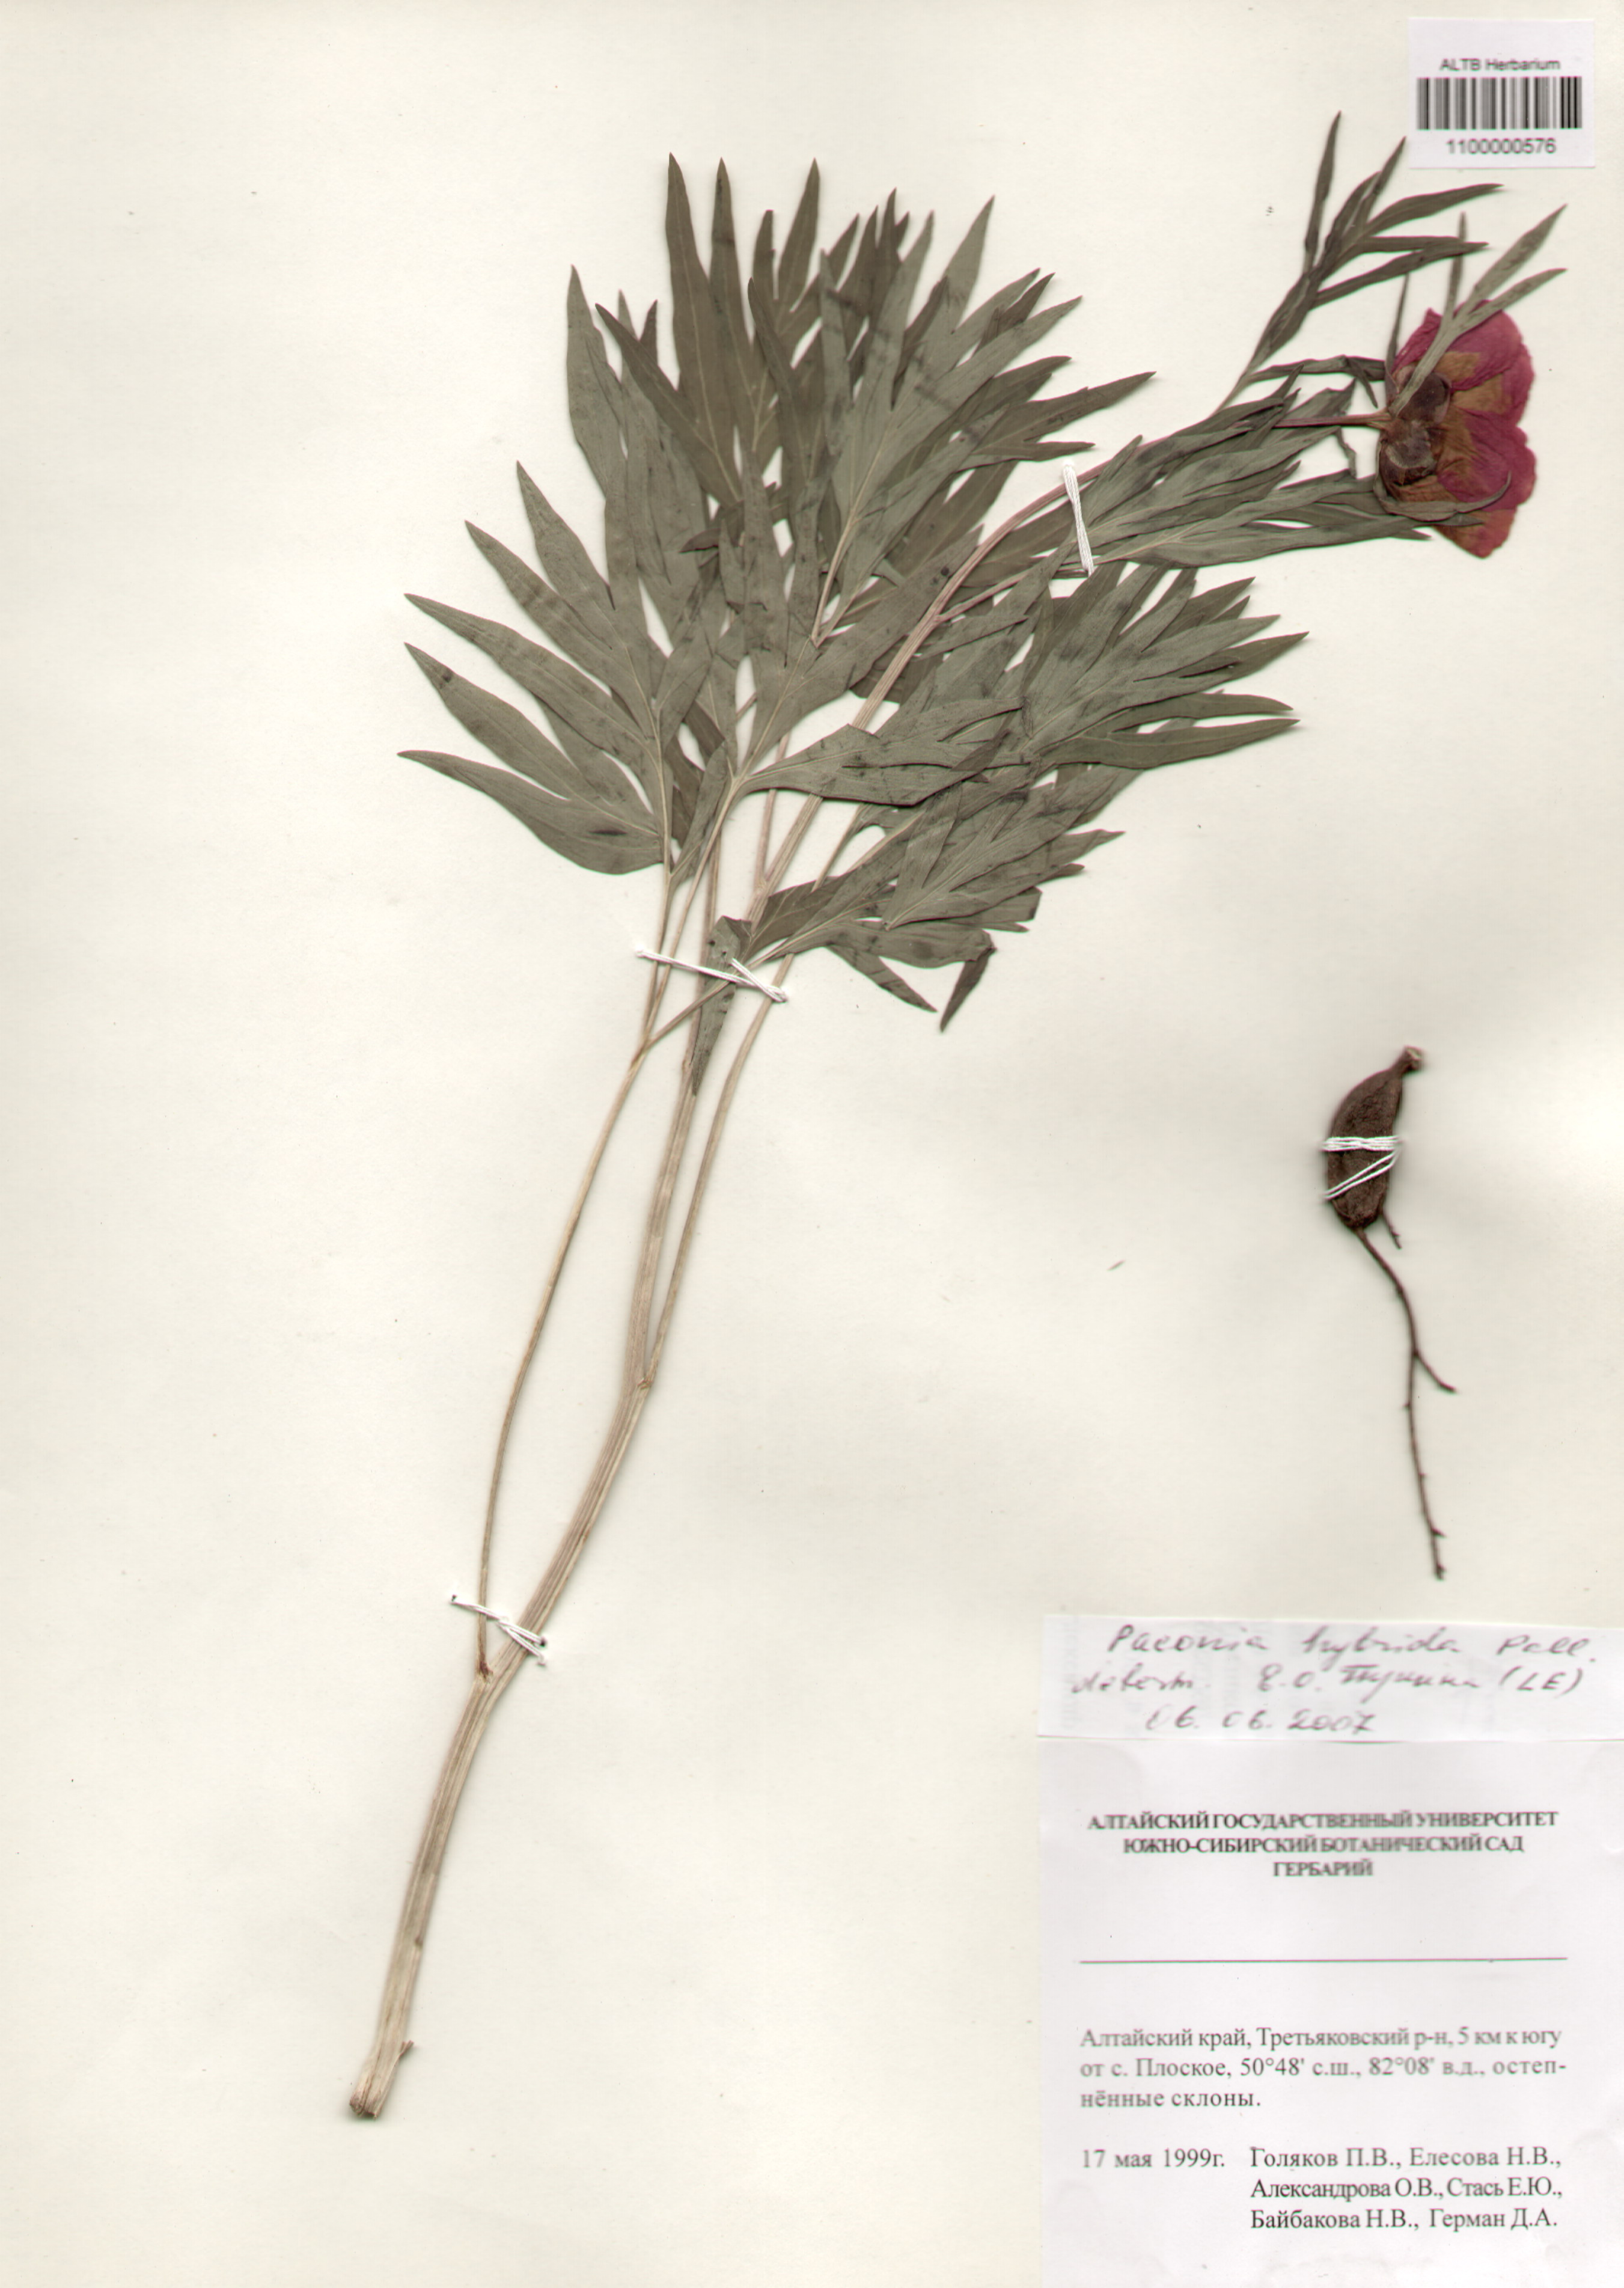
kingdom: Plantae
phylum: Tracheophyta
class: Magnoliopsida
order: Saxifragales
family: Paeoniaceae
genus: Paeonia
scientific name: Paeonia
